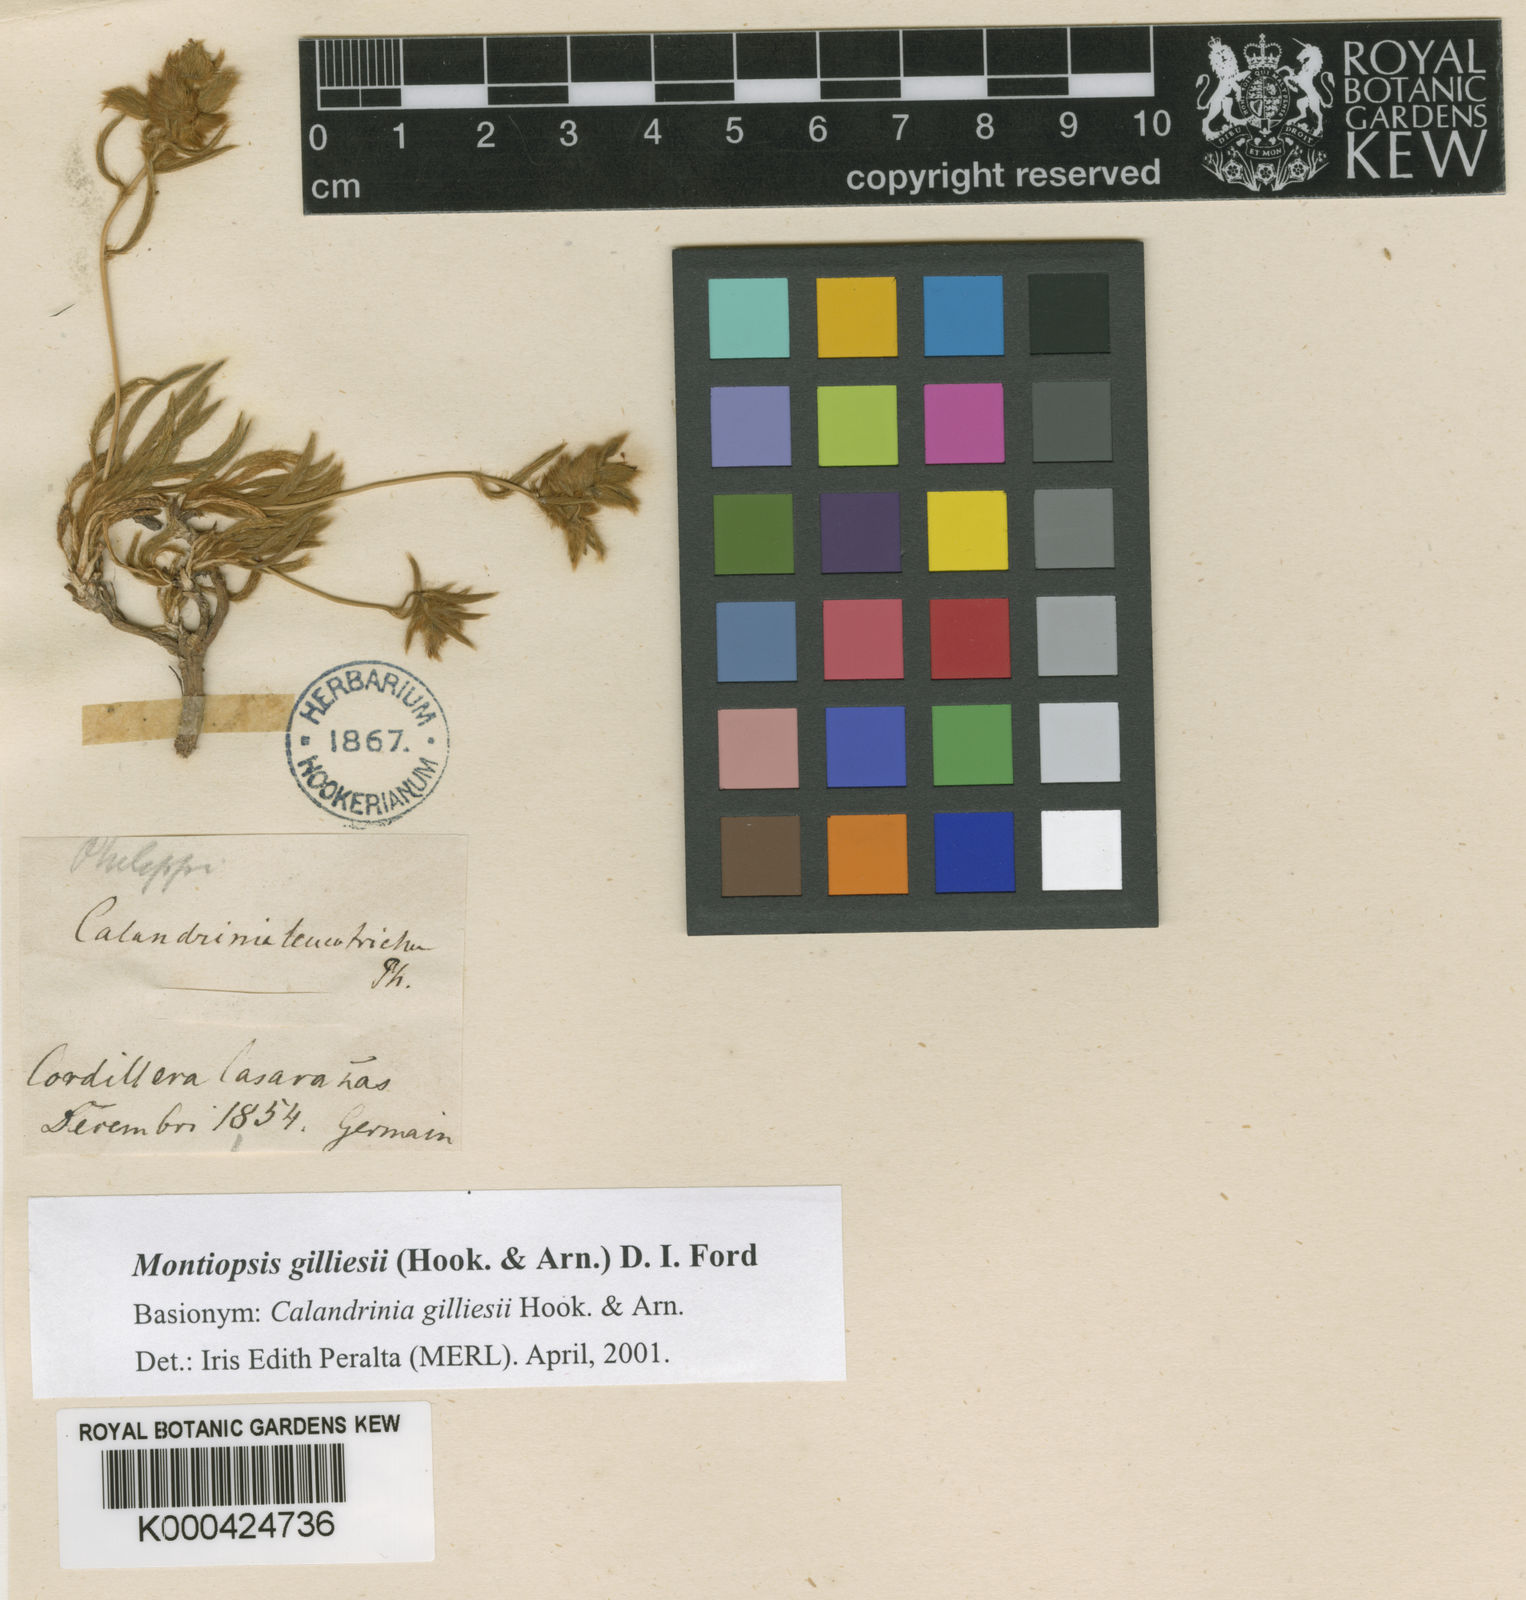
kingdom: Plantae
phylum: Tracheophyta
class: Magnoliopsida
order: Caryophyllales
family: Montiaceae
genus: Montiopsis
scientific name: Montiopsis gilliesii
